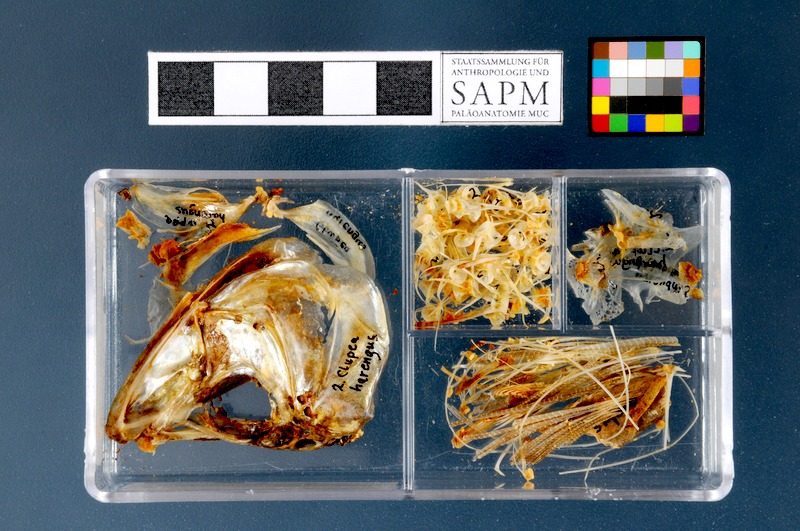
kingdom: Animalia
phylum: Chordata
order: Clupeiformes
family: Clupeidae
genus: Clupea
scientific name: Clupea harengus
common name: Herring
